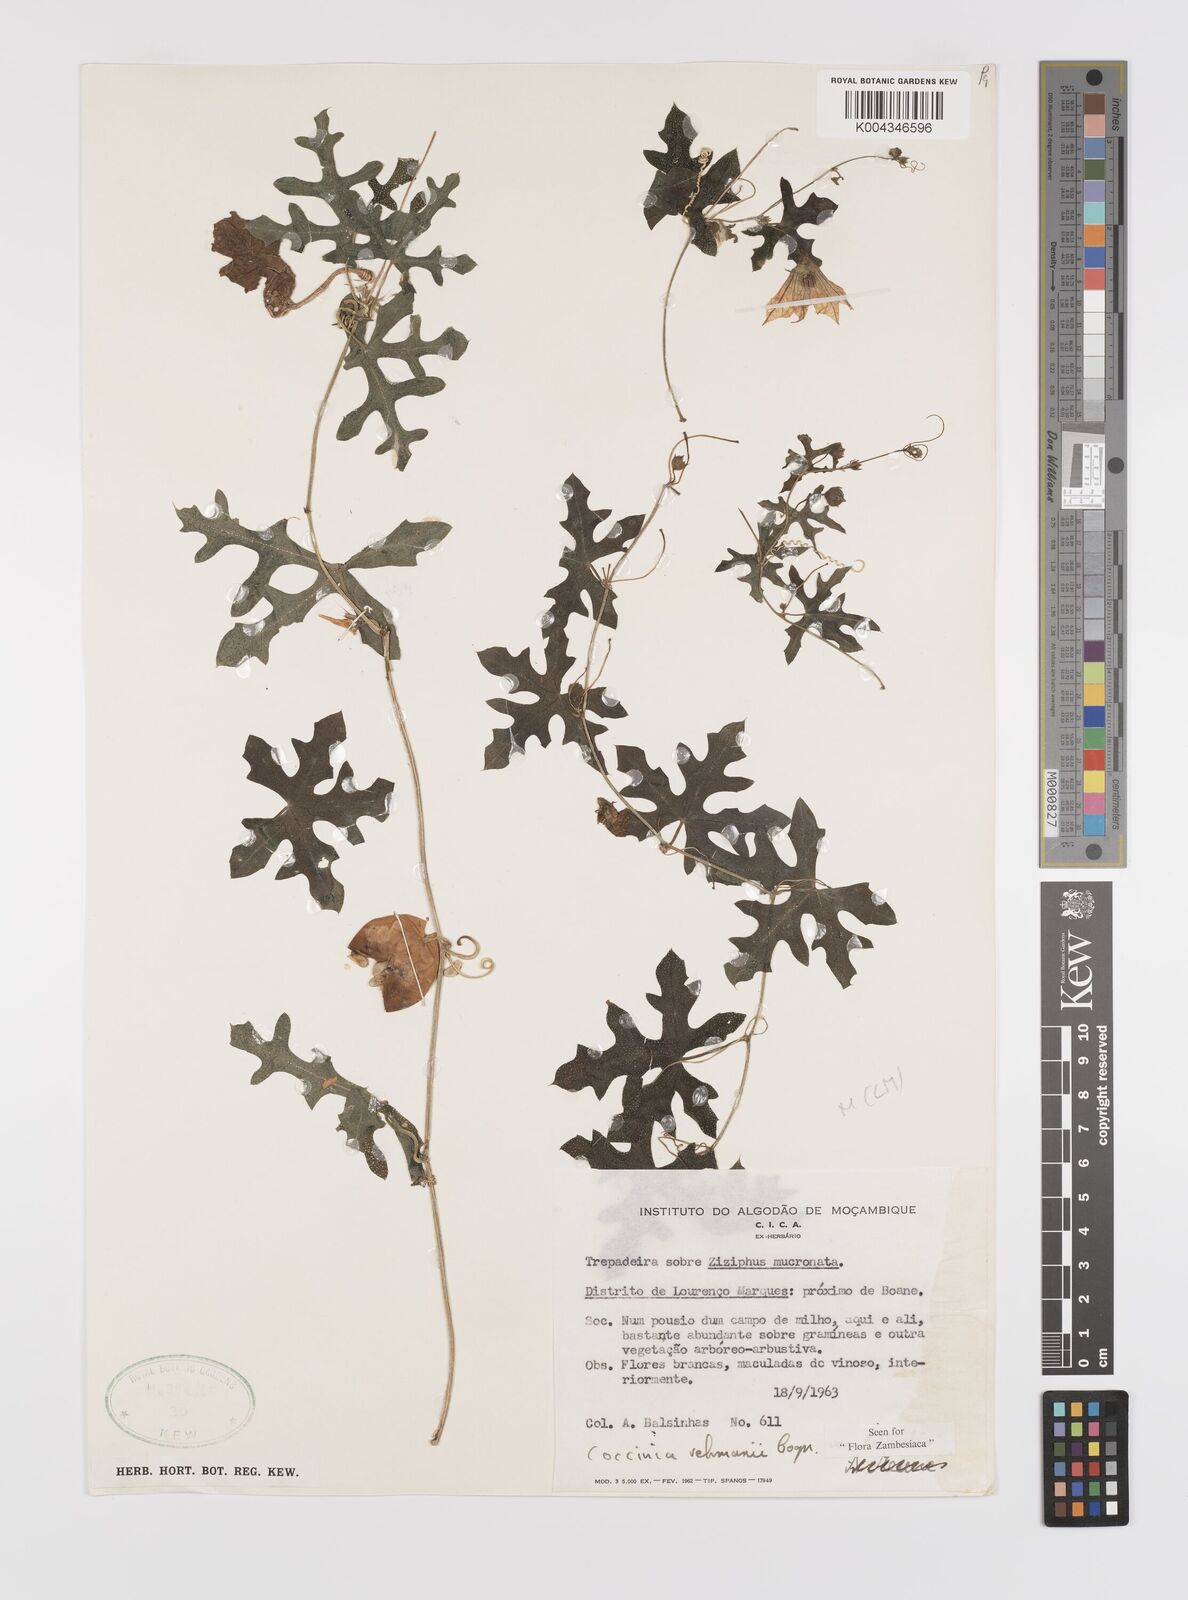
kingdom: Plantae
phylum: Tracheophyta
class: Magnoliopsida
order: Cucurbitales
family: Cucurbitaceae
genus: Coccinia
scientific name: Coccinia rehmannii
